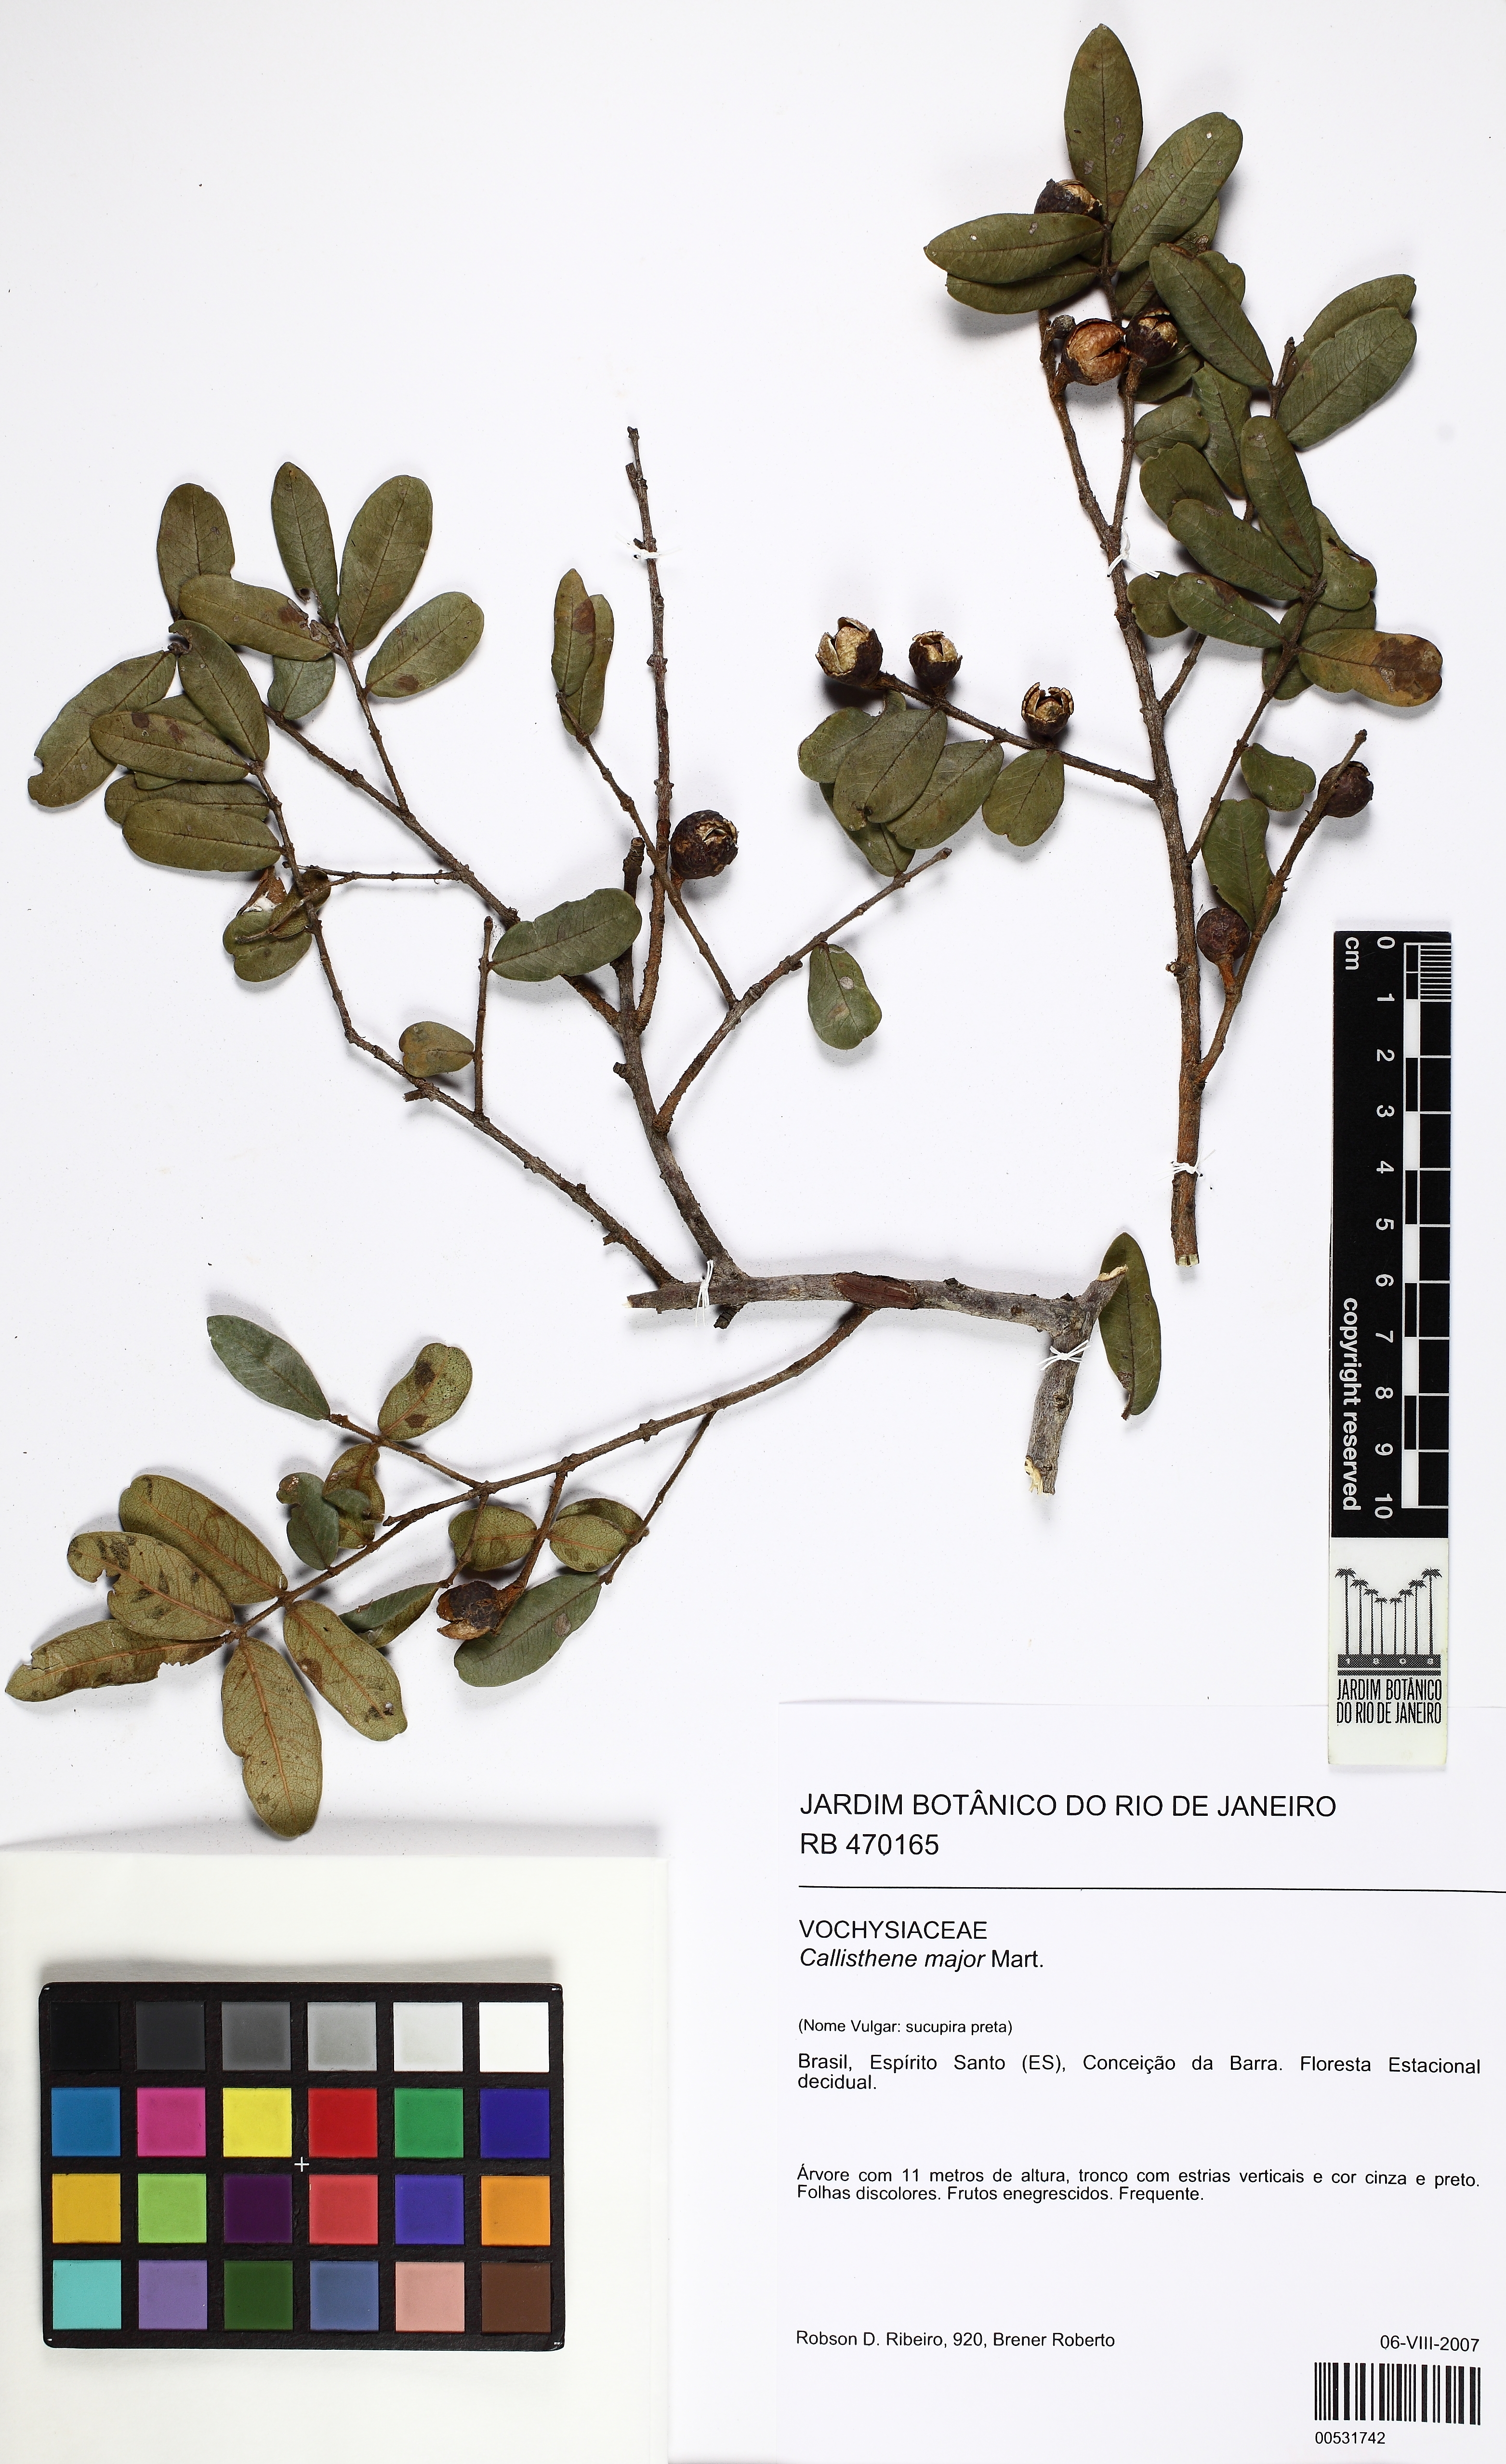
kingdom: Plantae
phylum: Tracheophyta
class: Magnoliopsida
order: Myrtales
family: Vochysiaceae
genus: Callisthene
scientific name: Callisthene major
